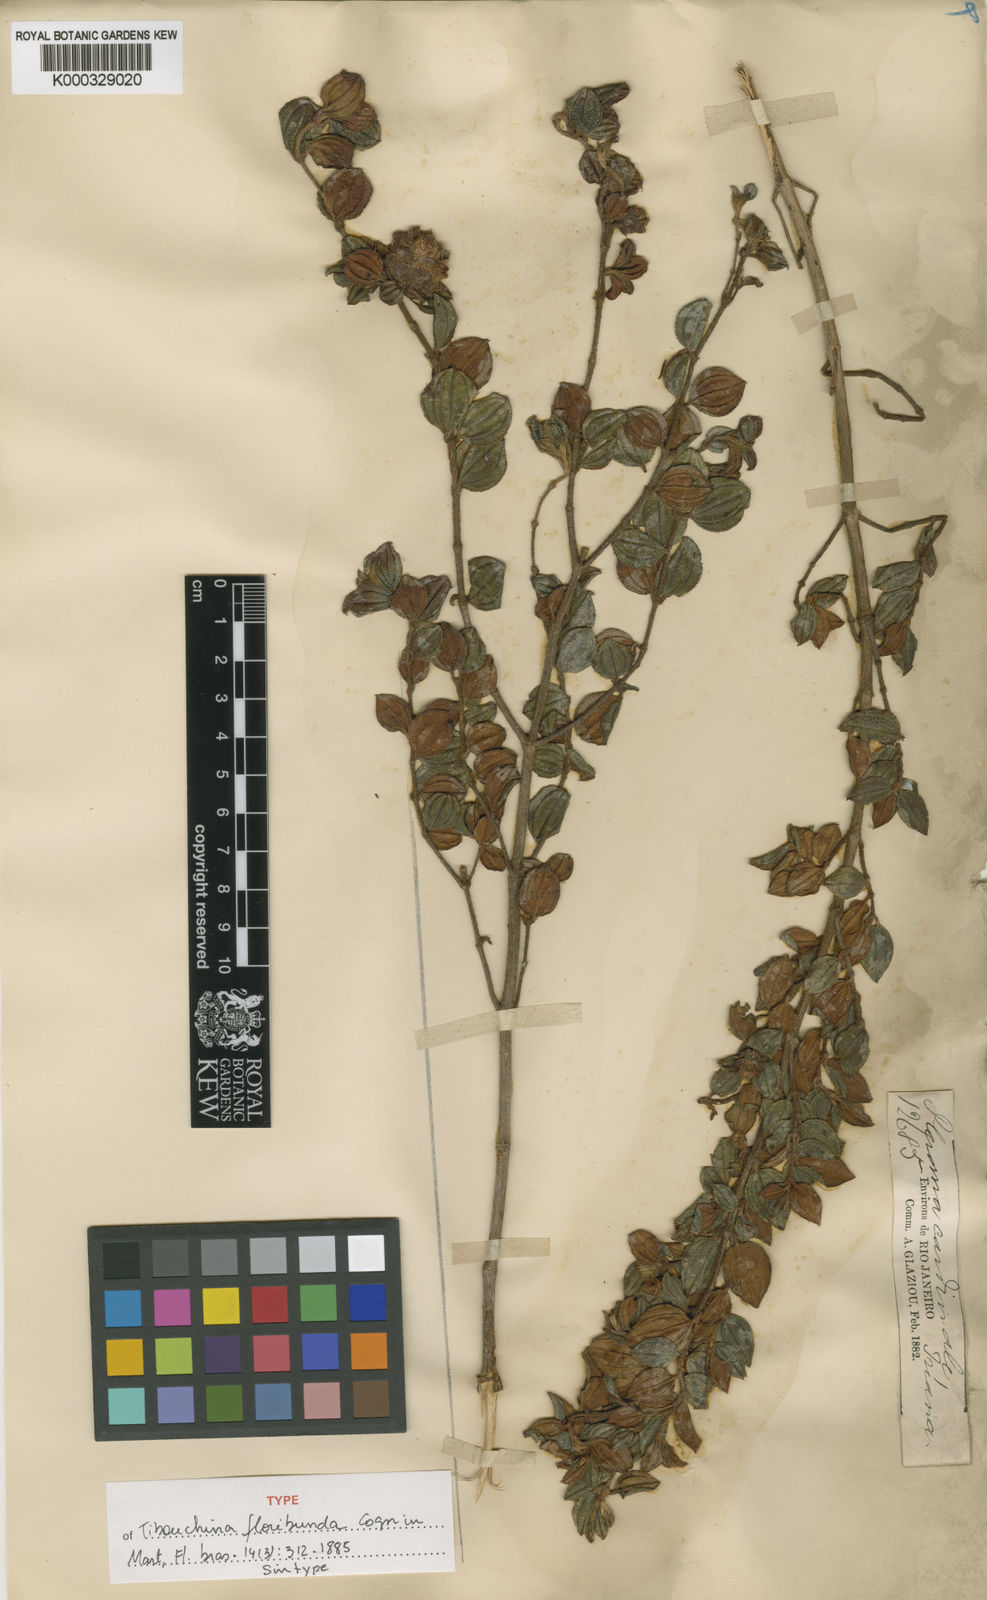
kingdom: Plantae
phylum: Tracheophyta
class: Magnoliopsida
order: Myrtales
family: Melastomataceae
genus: Pleroma
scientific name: Pleroma floribundum
